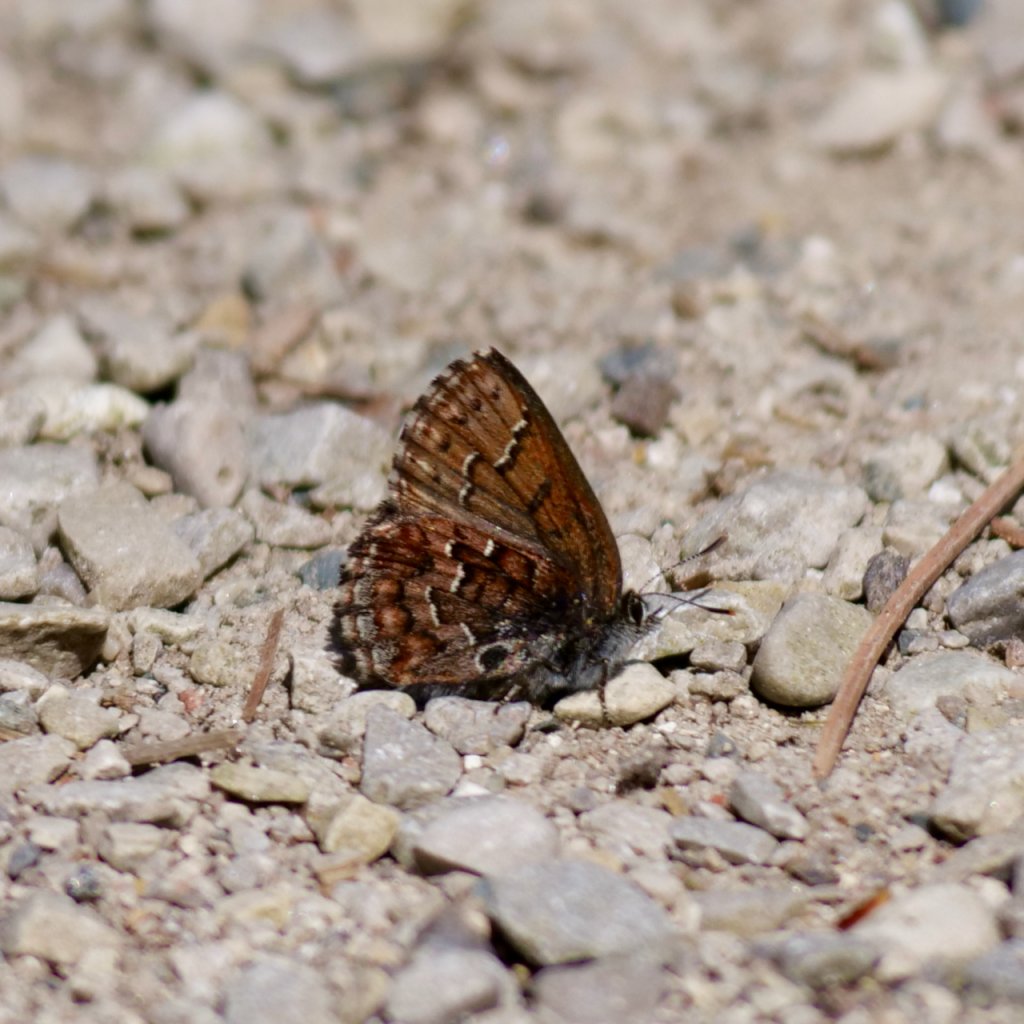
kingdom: Animalia
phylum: Arthropoda
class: Insecta
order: Lepidoptera
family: Lycaenidae
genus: Incisalia
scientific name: Incisalia niphon
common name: Eastern Pine Elfin
